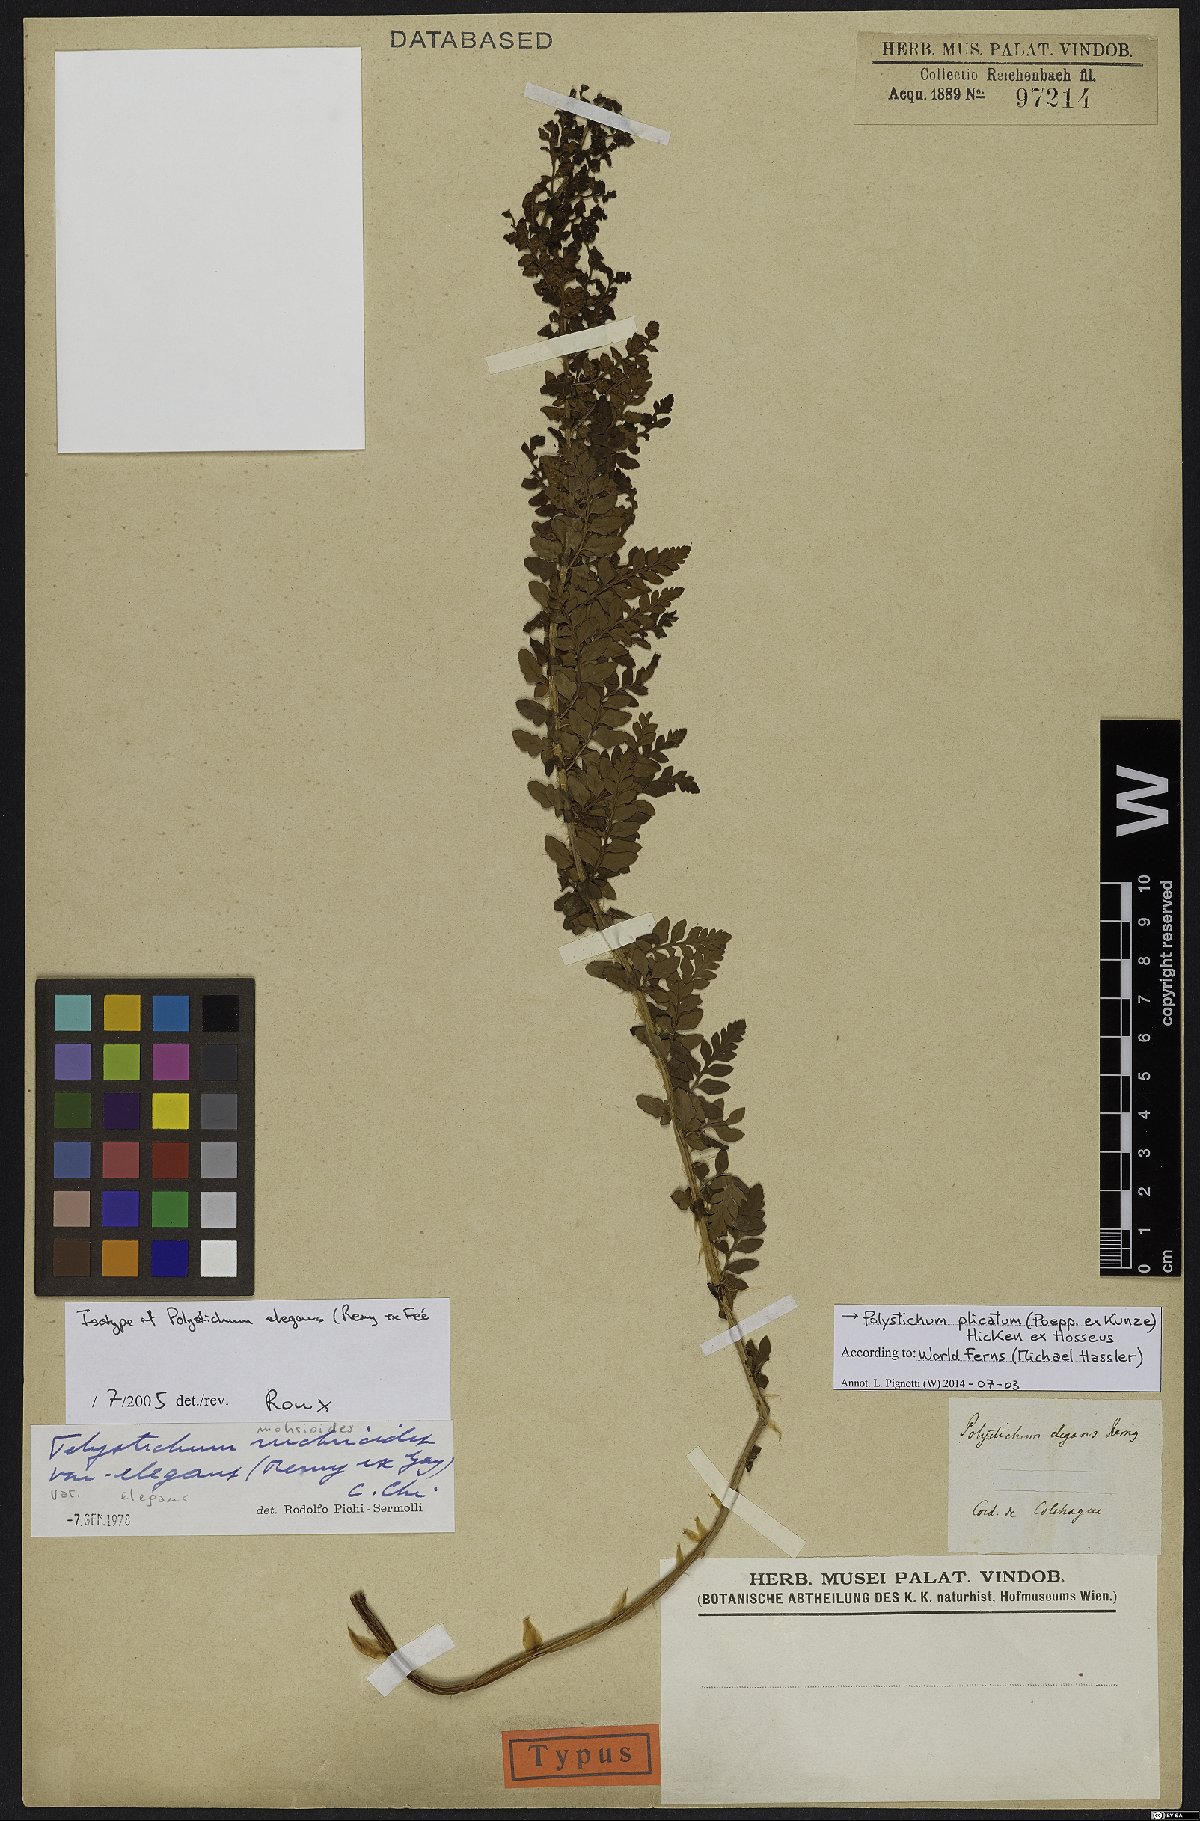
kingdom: Plantae
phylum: Tracheophyta
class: Polypodiopsida
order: Polypodiales
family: Dryopteridaceae
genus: Polystichum
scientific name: Polystichum plicatum
